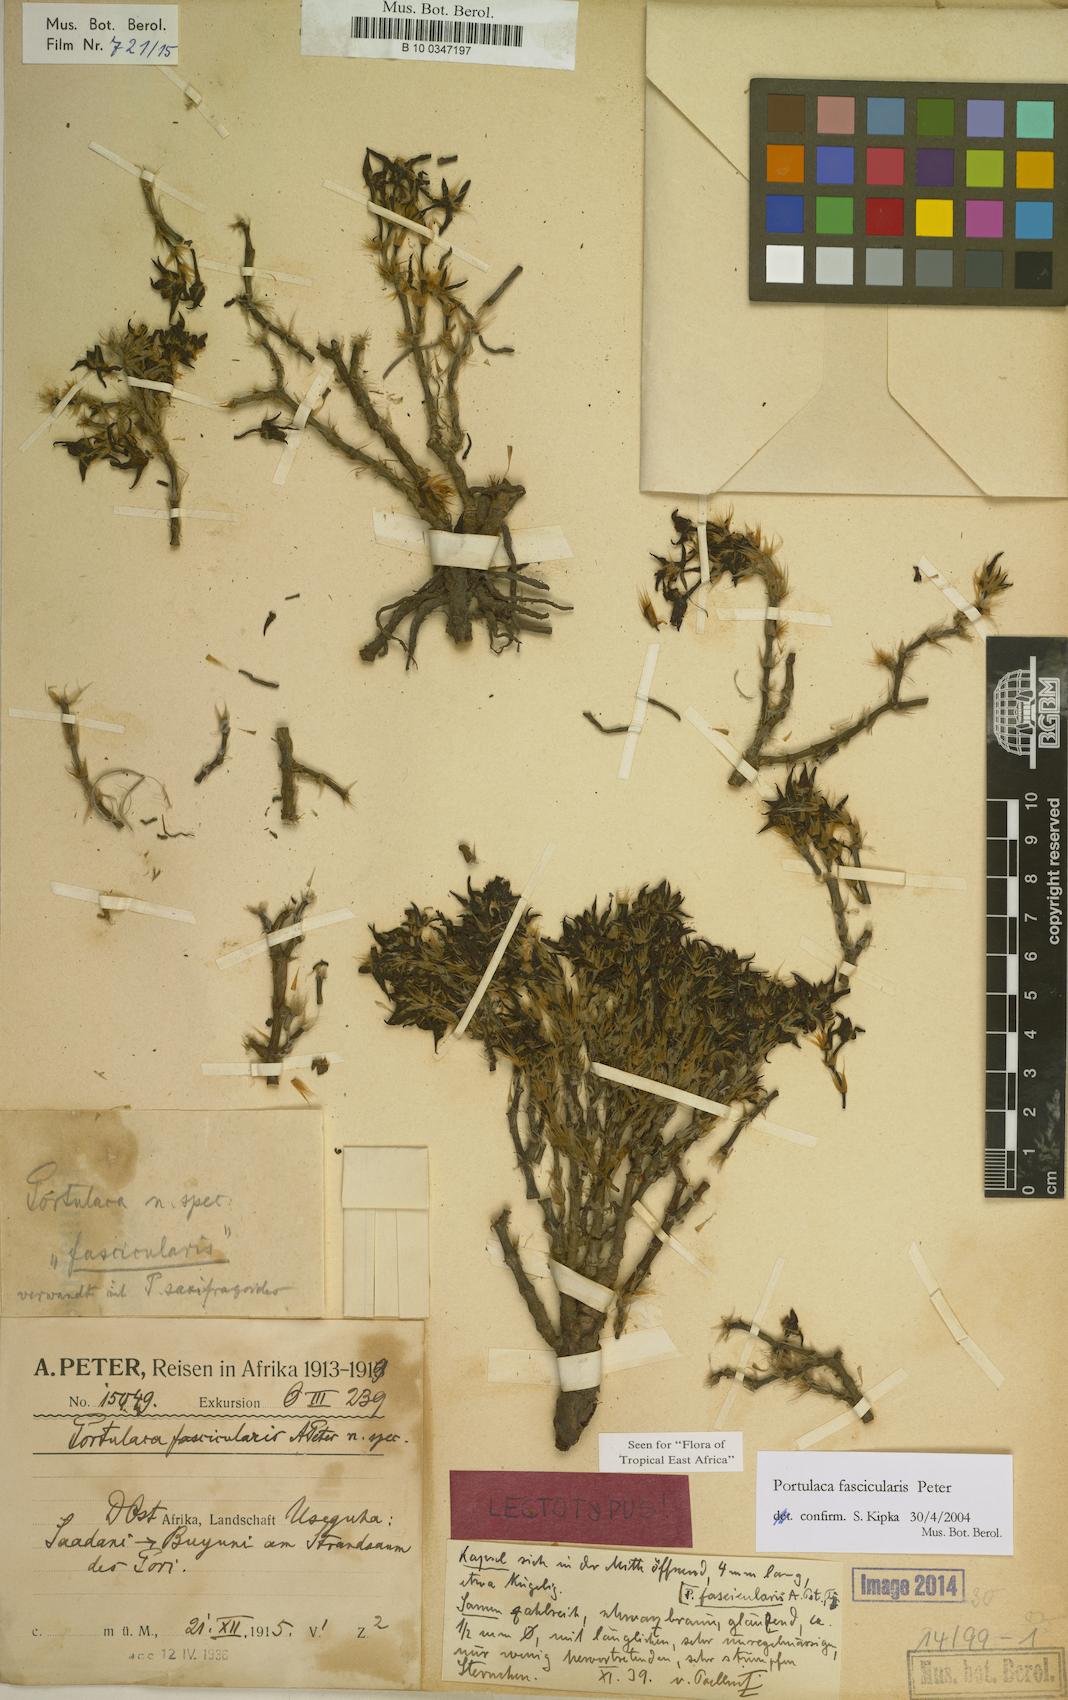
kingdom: Plantae
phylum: Tracheophyta
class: Magnoliopsida
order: Caryophyllales
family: Portulacaceae
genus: Portulaca
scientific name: Portulaca fascicularis
